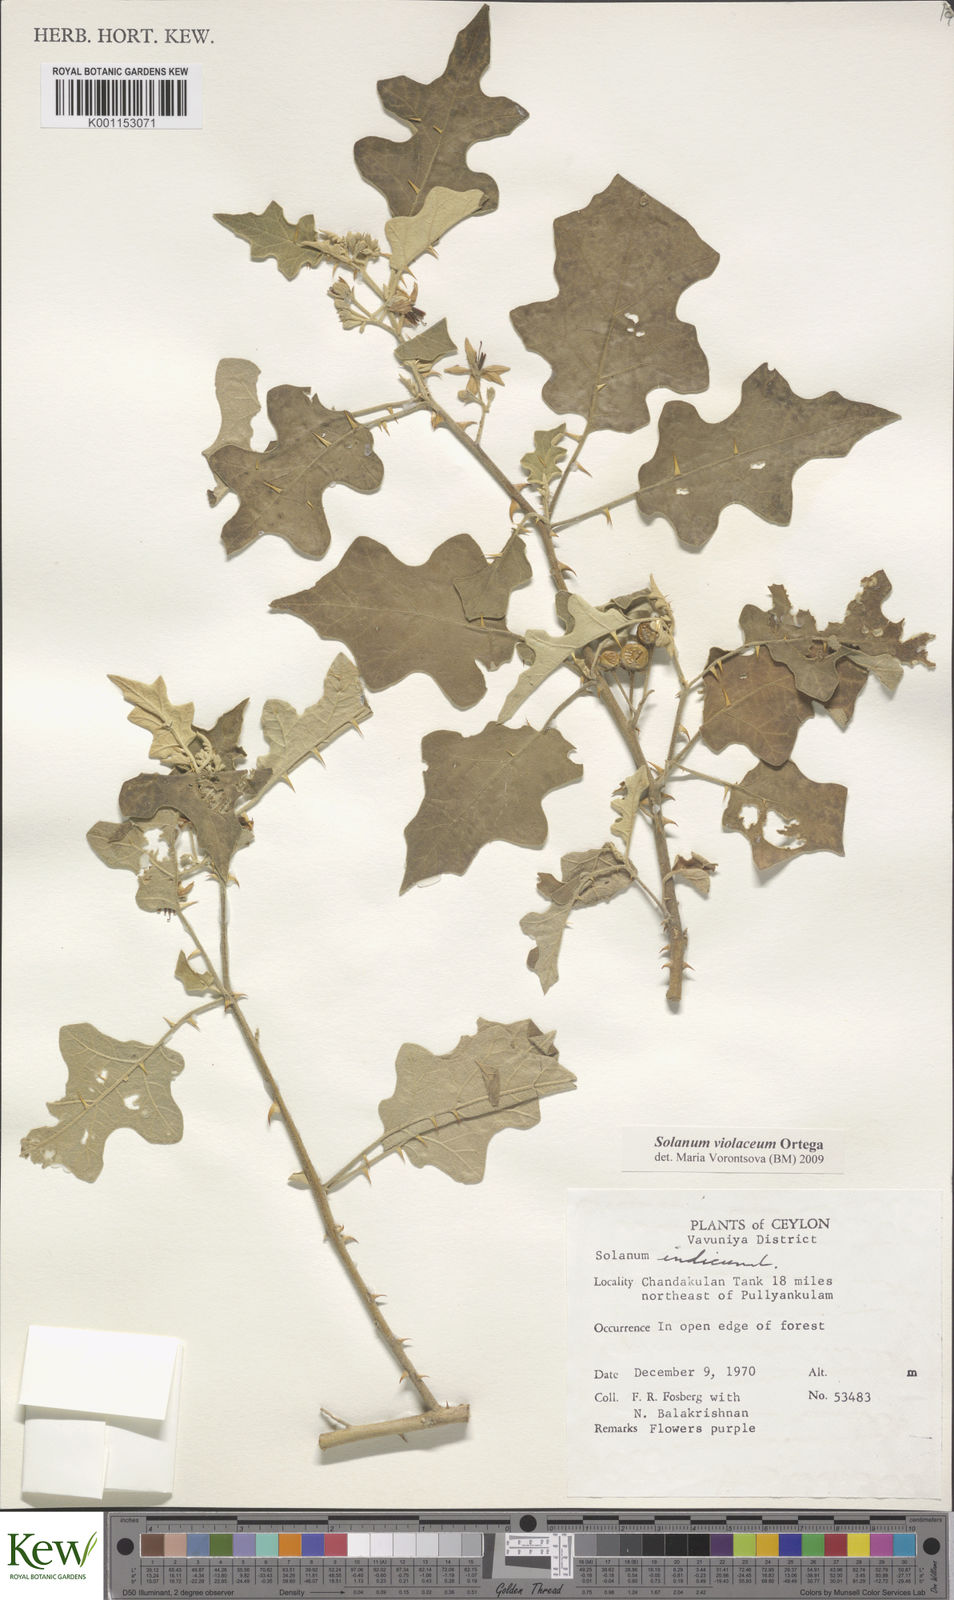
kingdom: Plantae
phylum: Tracheophyta
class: Magnoliopsida
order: Solanales
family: Solanaceae
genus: Solanum
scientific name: Solanum violaceum
